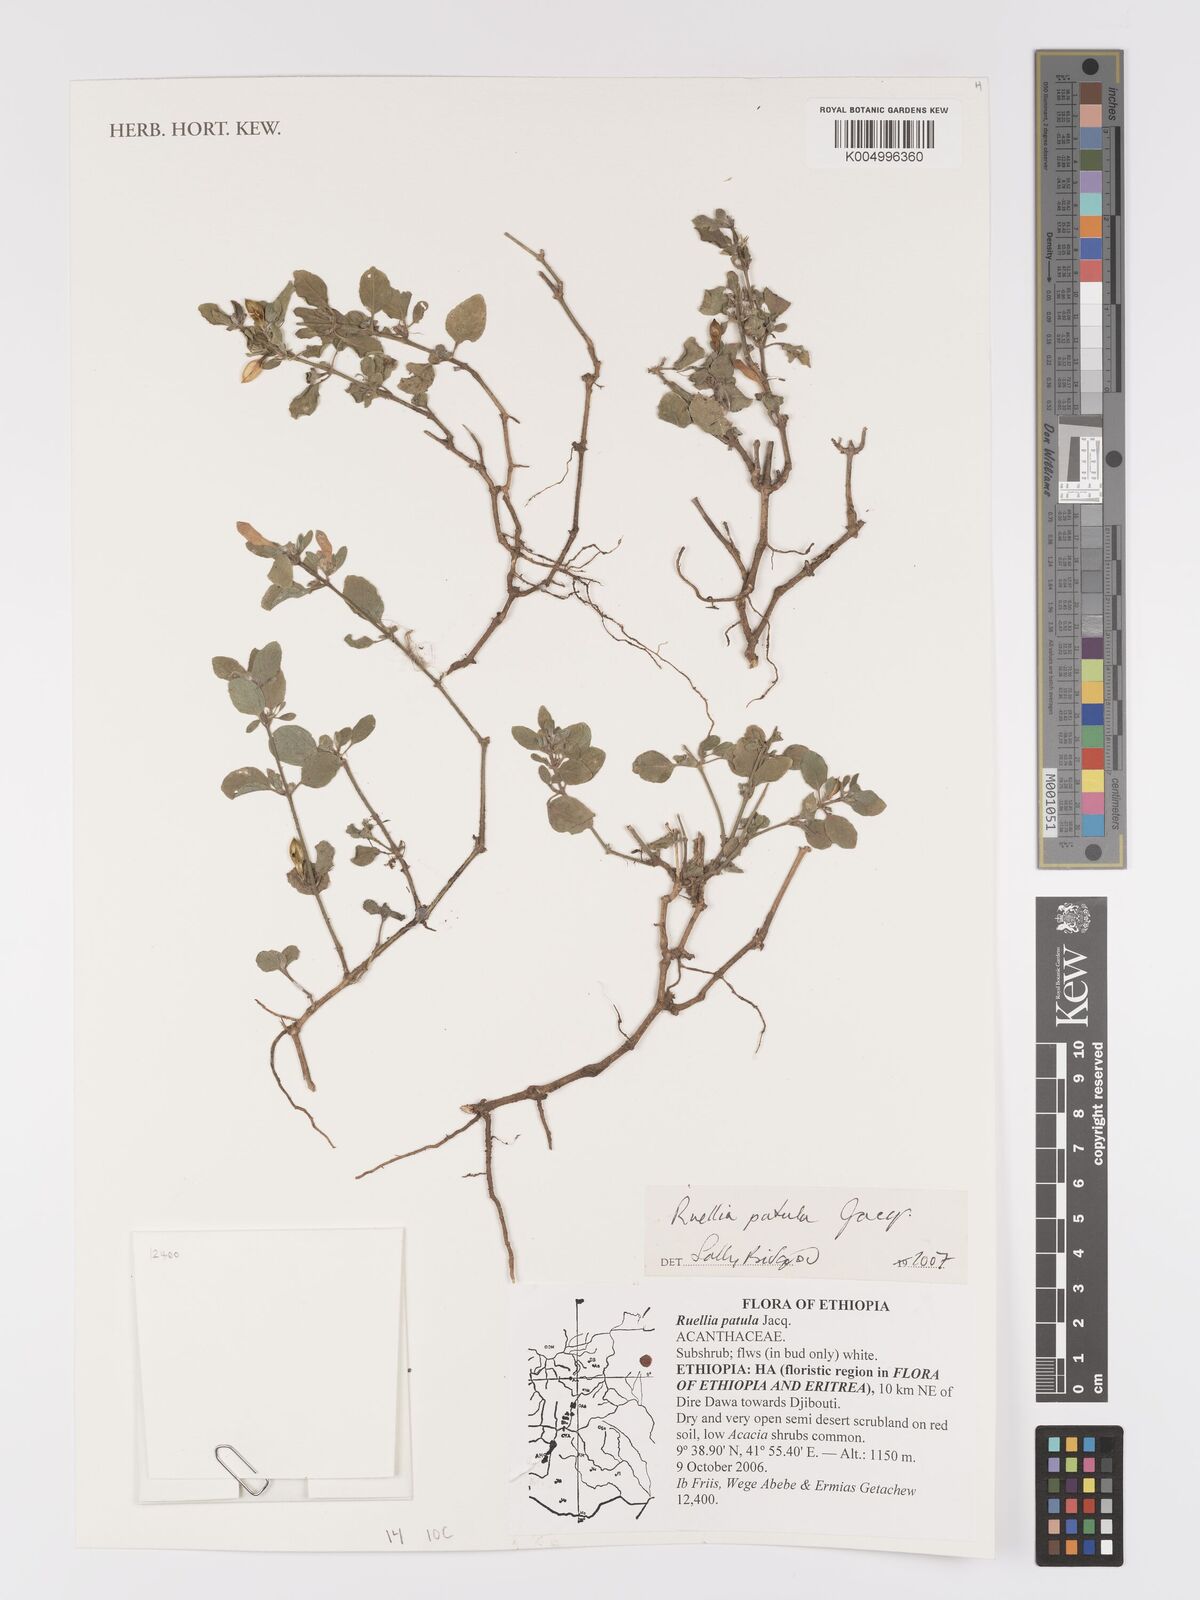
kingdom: Plantae
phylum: Tracheophyta
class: Magnoliopsida
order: Lamiales
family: Acanthaceae
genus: Ruellia
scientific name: Ruellia patula
